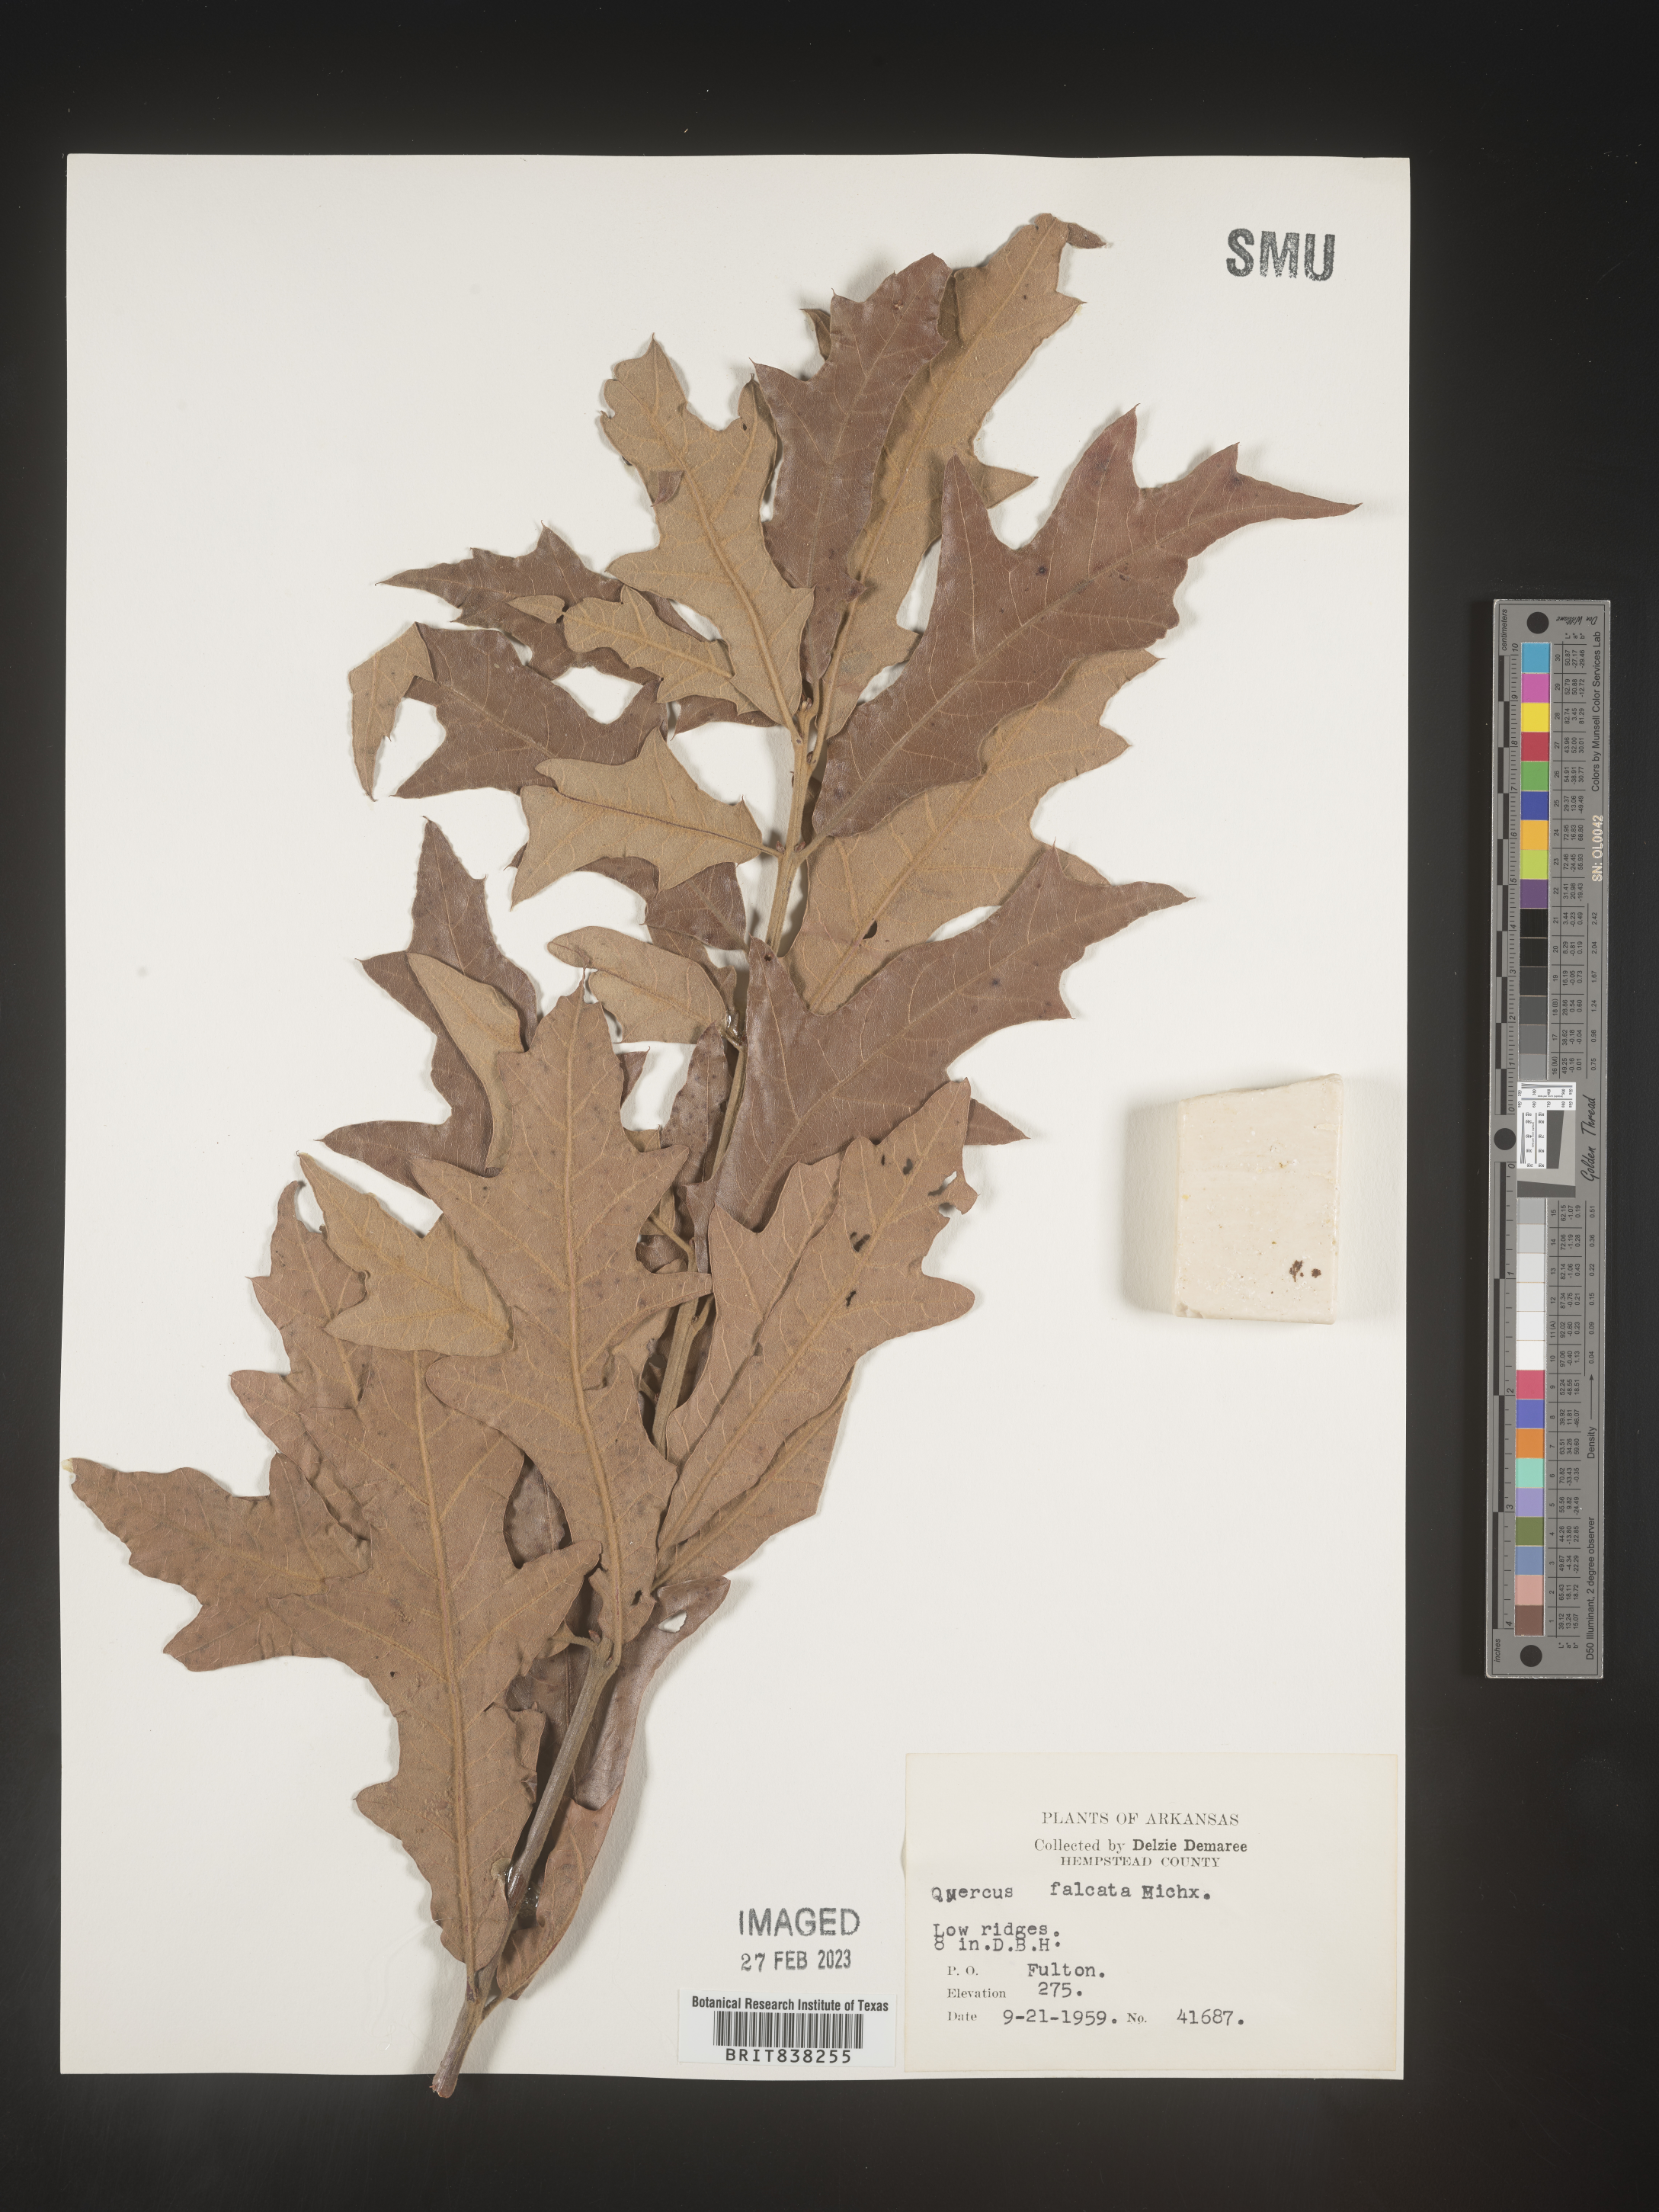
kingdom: Plantae
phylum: Tracheophyta
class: Magnoliopsida
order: Fagales
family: Fagaceae
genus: Quercus
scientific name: Quercus falcata
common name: Southern red oak
